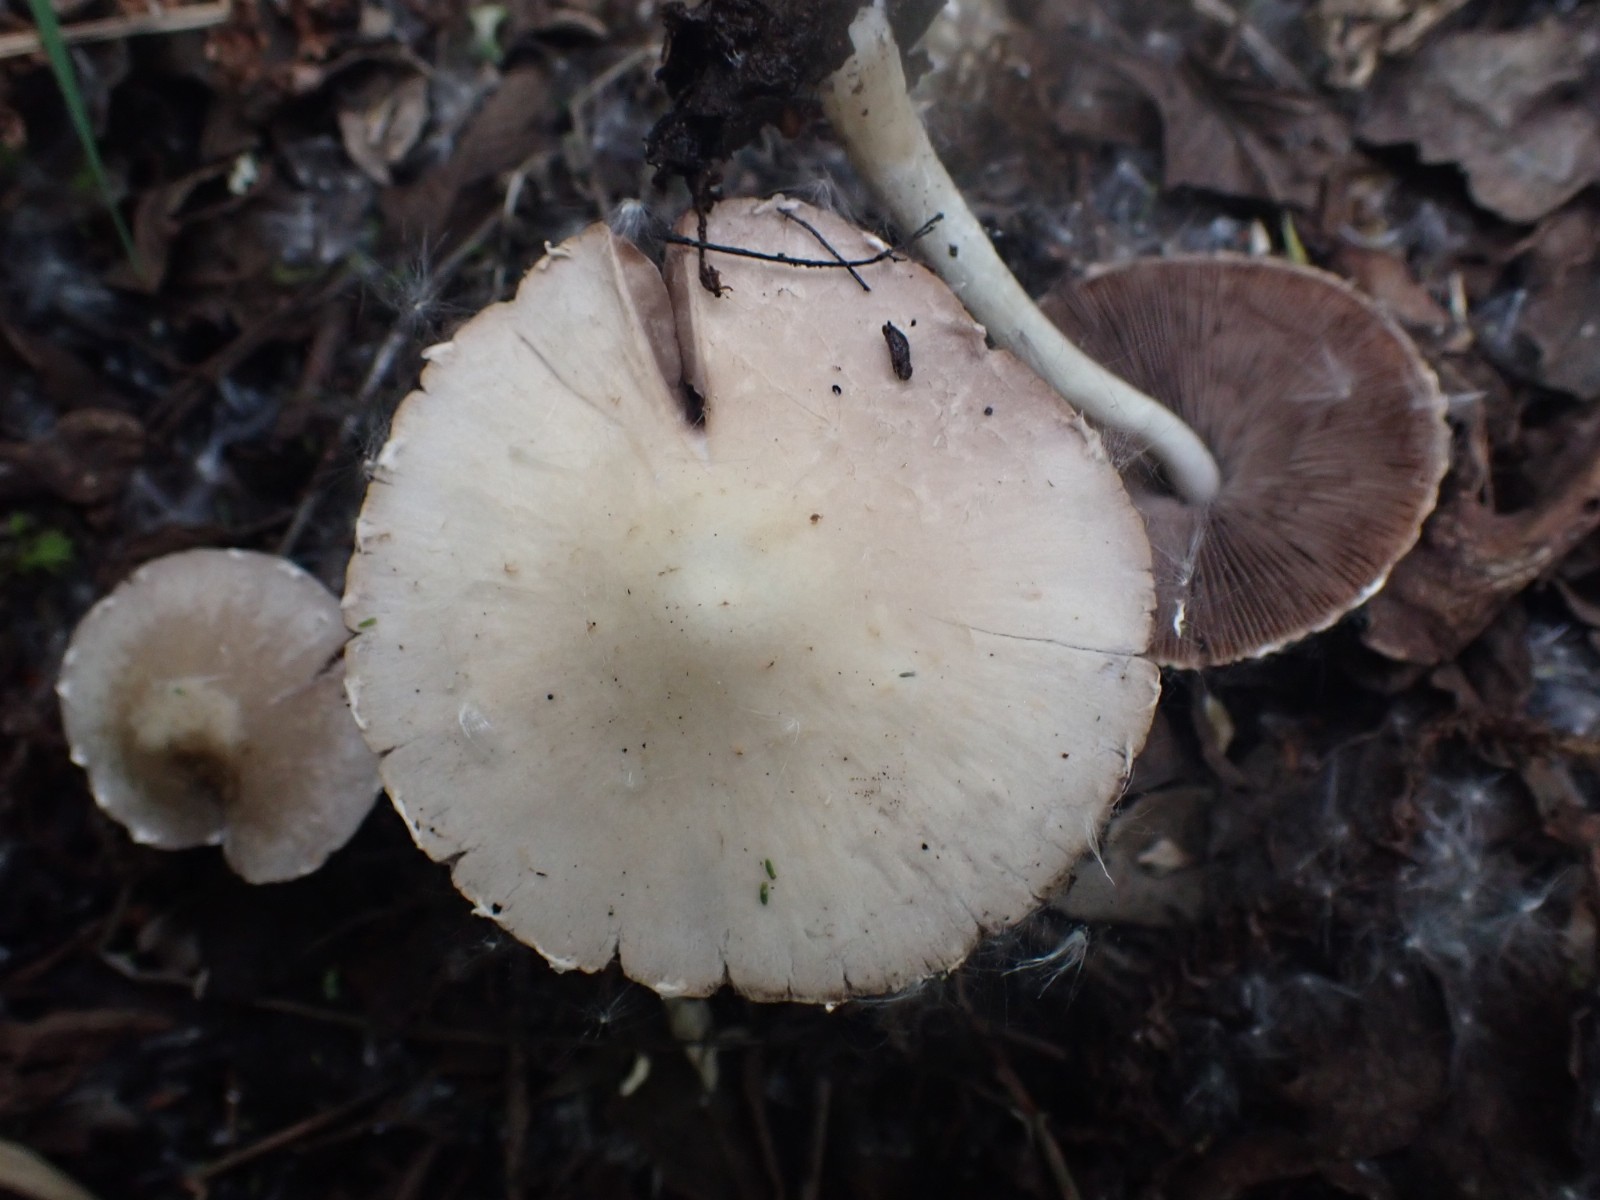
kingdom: Fungi
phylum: Basidiomycota
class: Agaricomycetes
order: Agaricales
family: Psathyrellaceae
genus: Candolleomyces
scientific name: Candolleomyces candolleanus
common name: Candolles mørkhat
